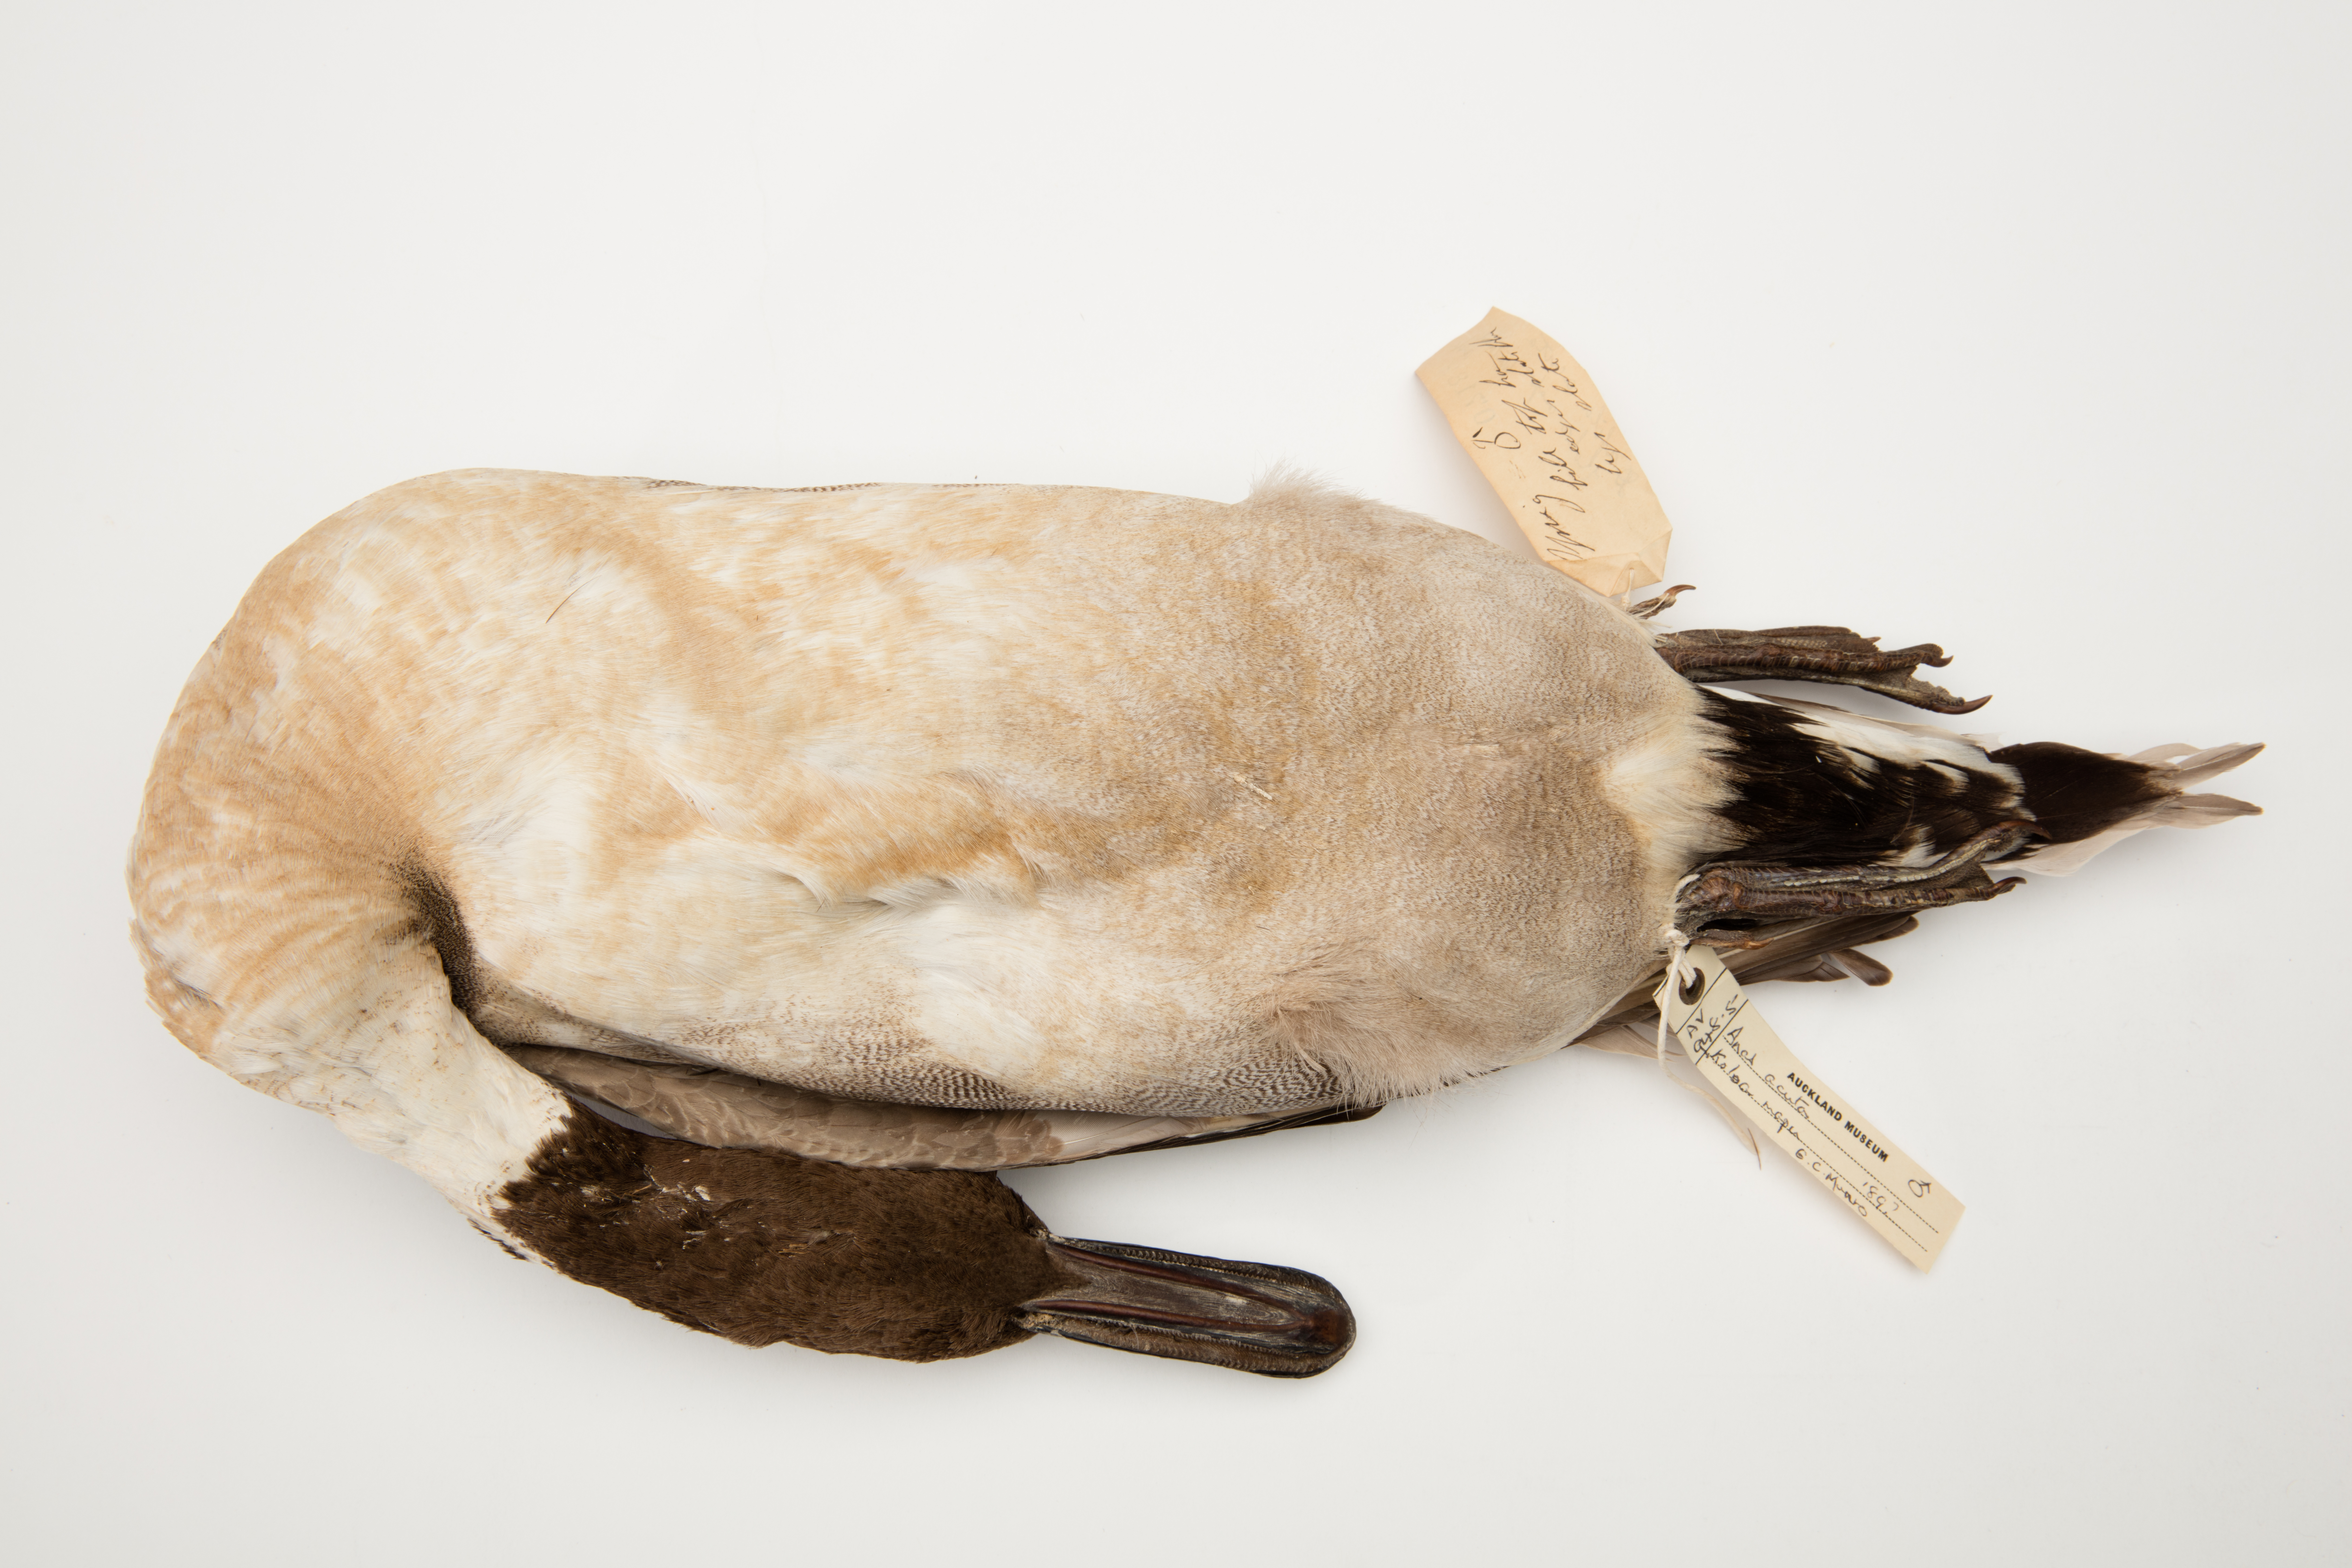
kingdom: Animalia
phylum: Chordata
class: Aves
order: Anseriformes
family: Anatidae
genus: Anas
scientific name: Anas acuta
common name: Northern pintail
